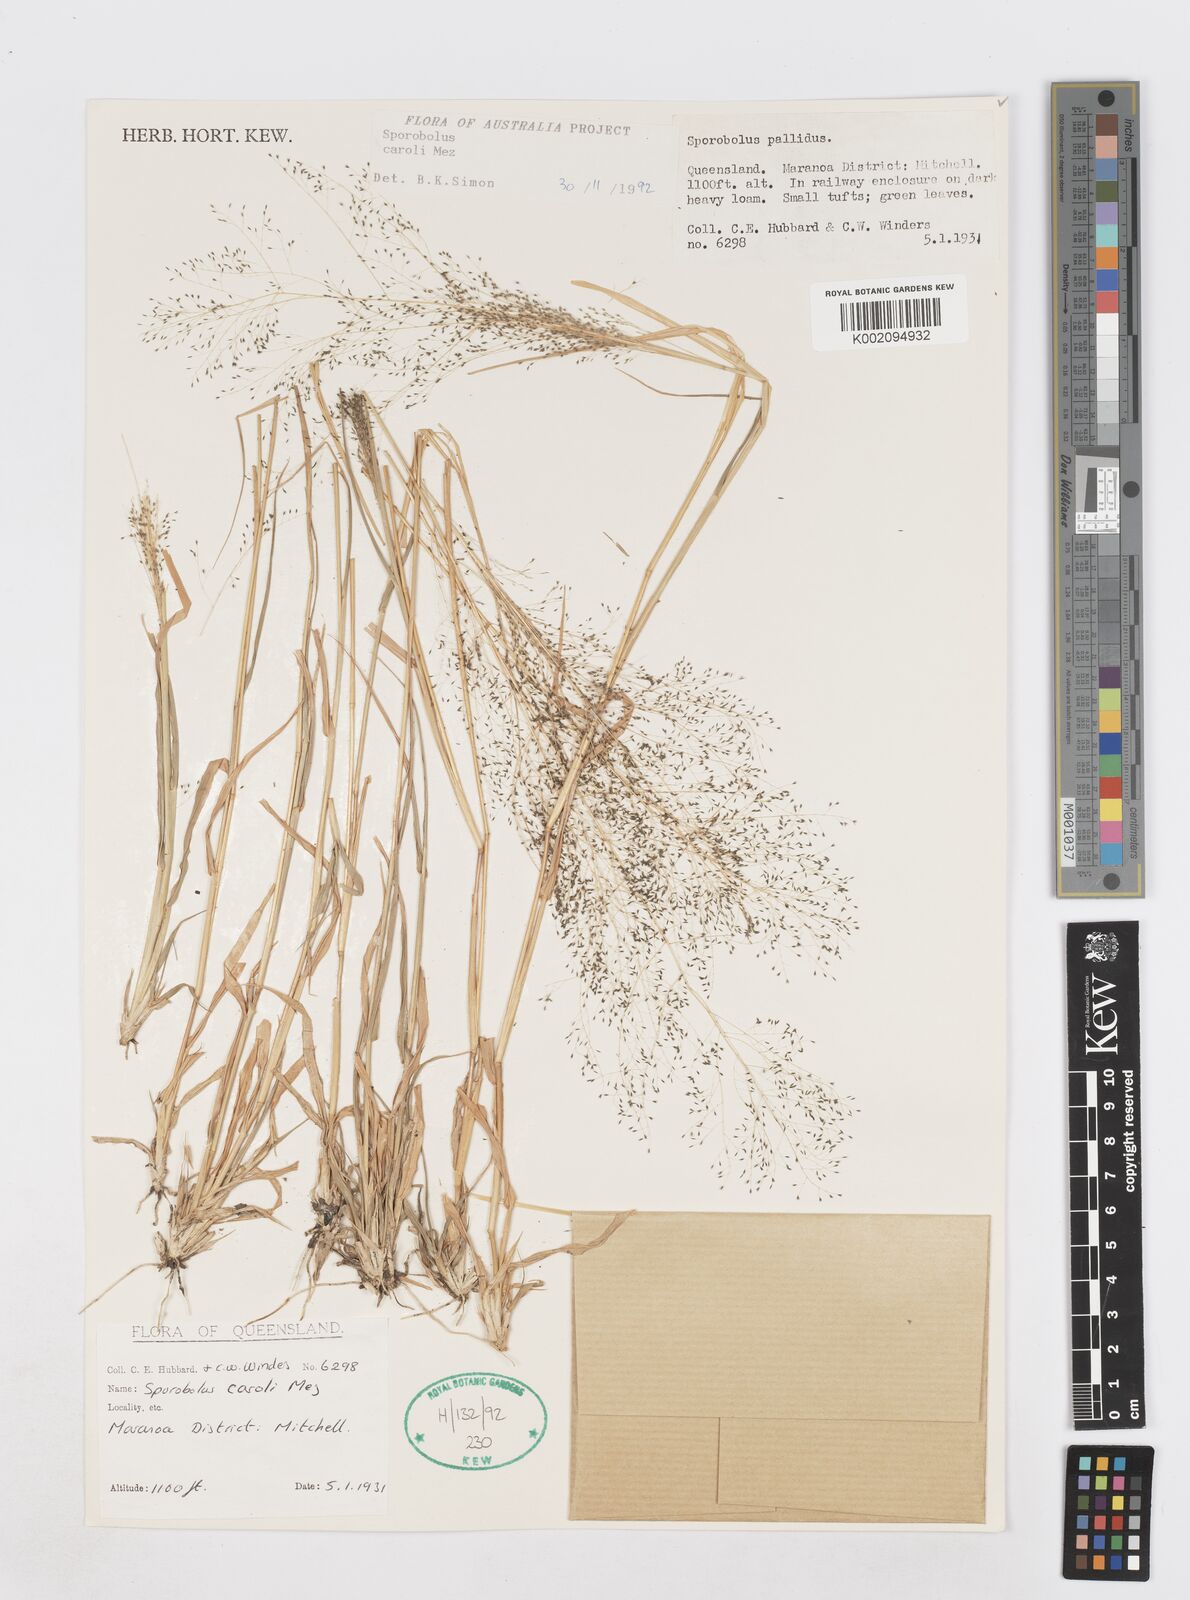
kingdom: Plantae
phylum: Tracheophyta
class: Liliopsida
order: Poales
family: Poaceae
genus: Sporobolus
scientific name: Sporobolus caroli
